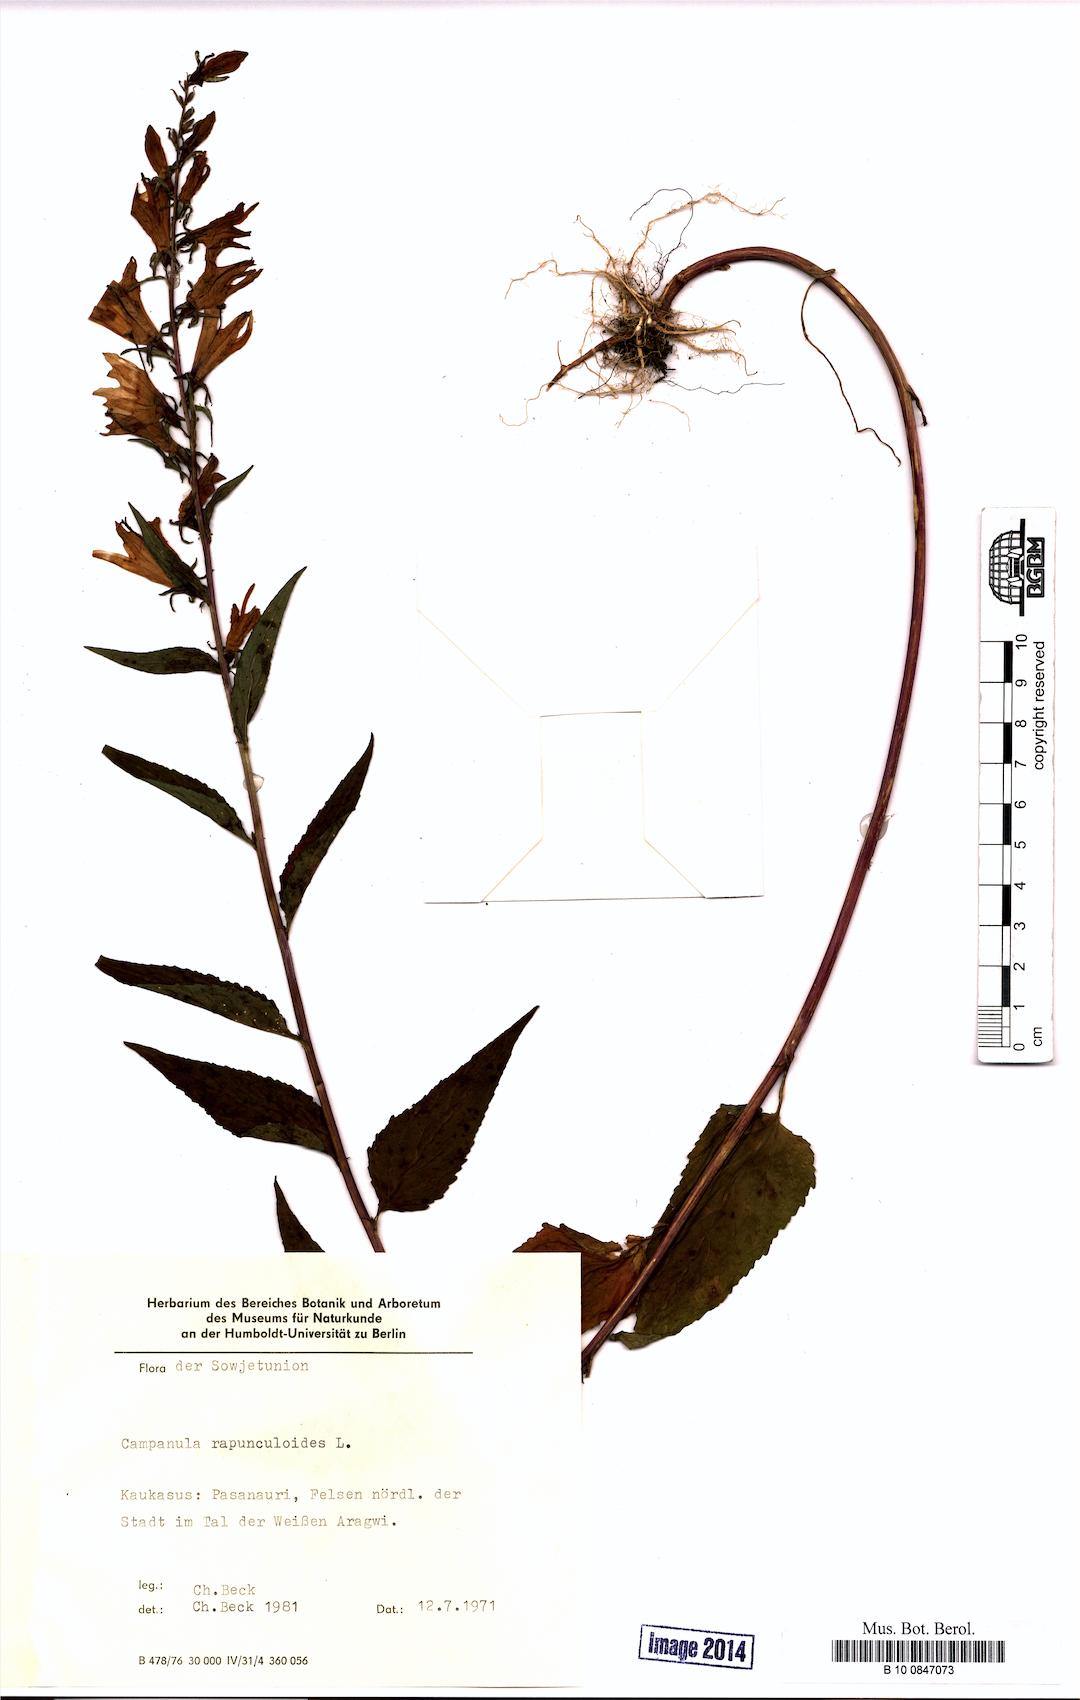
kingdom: Plantae
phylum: Tracheophyta
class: Magnoliopsida
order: Asterales
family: Campanulaceae
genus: Campanula
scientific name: Campanula rapunculoides
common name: Creeping bellflower
